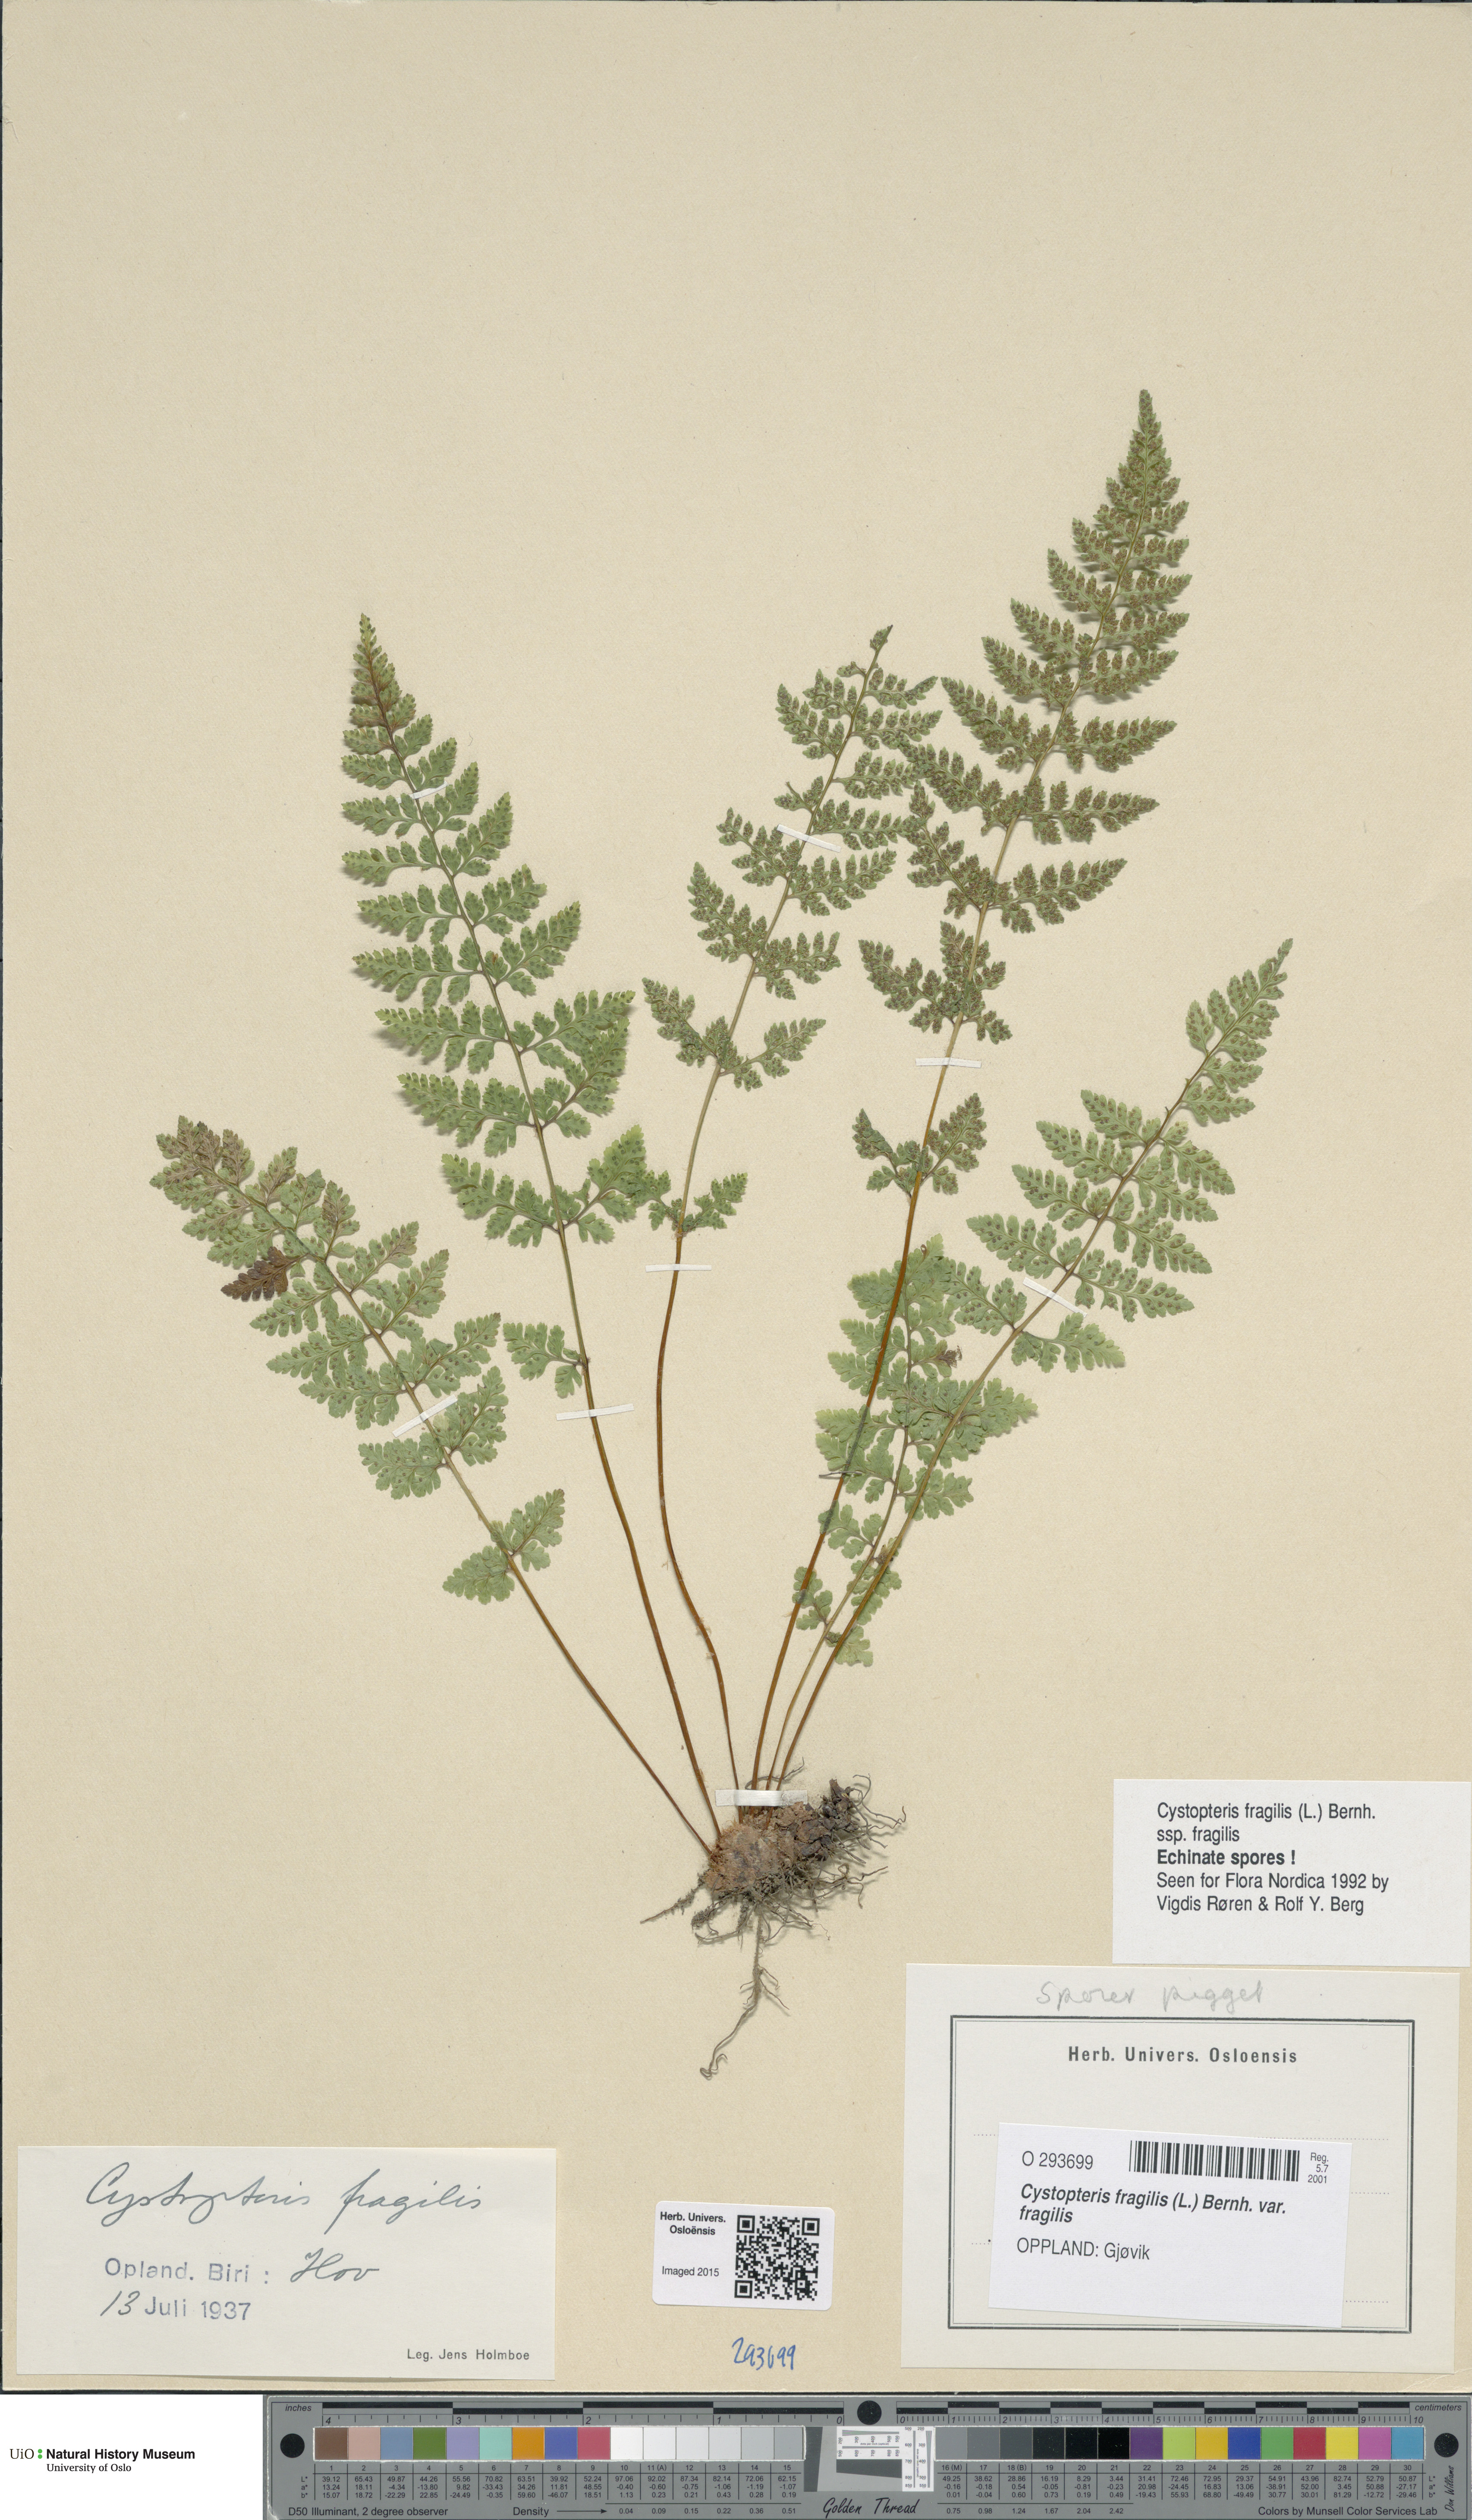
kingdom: Plantae
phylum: Tracheophyta
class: Polypodiopsida
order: Polypodiales
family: Cystopteridaceae
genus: Cystopteris
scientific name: Cystopteris fragilis
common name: Brittle bladder fern
